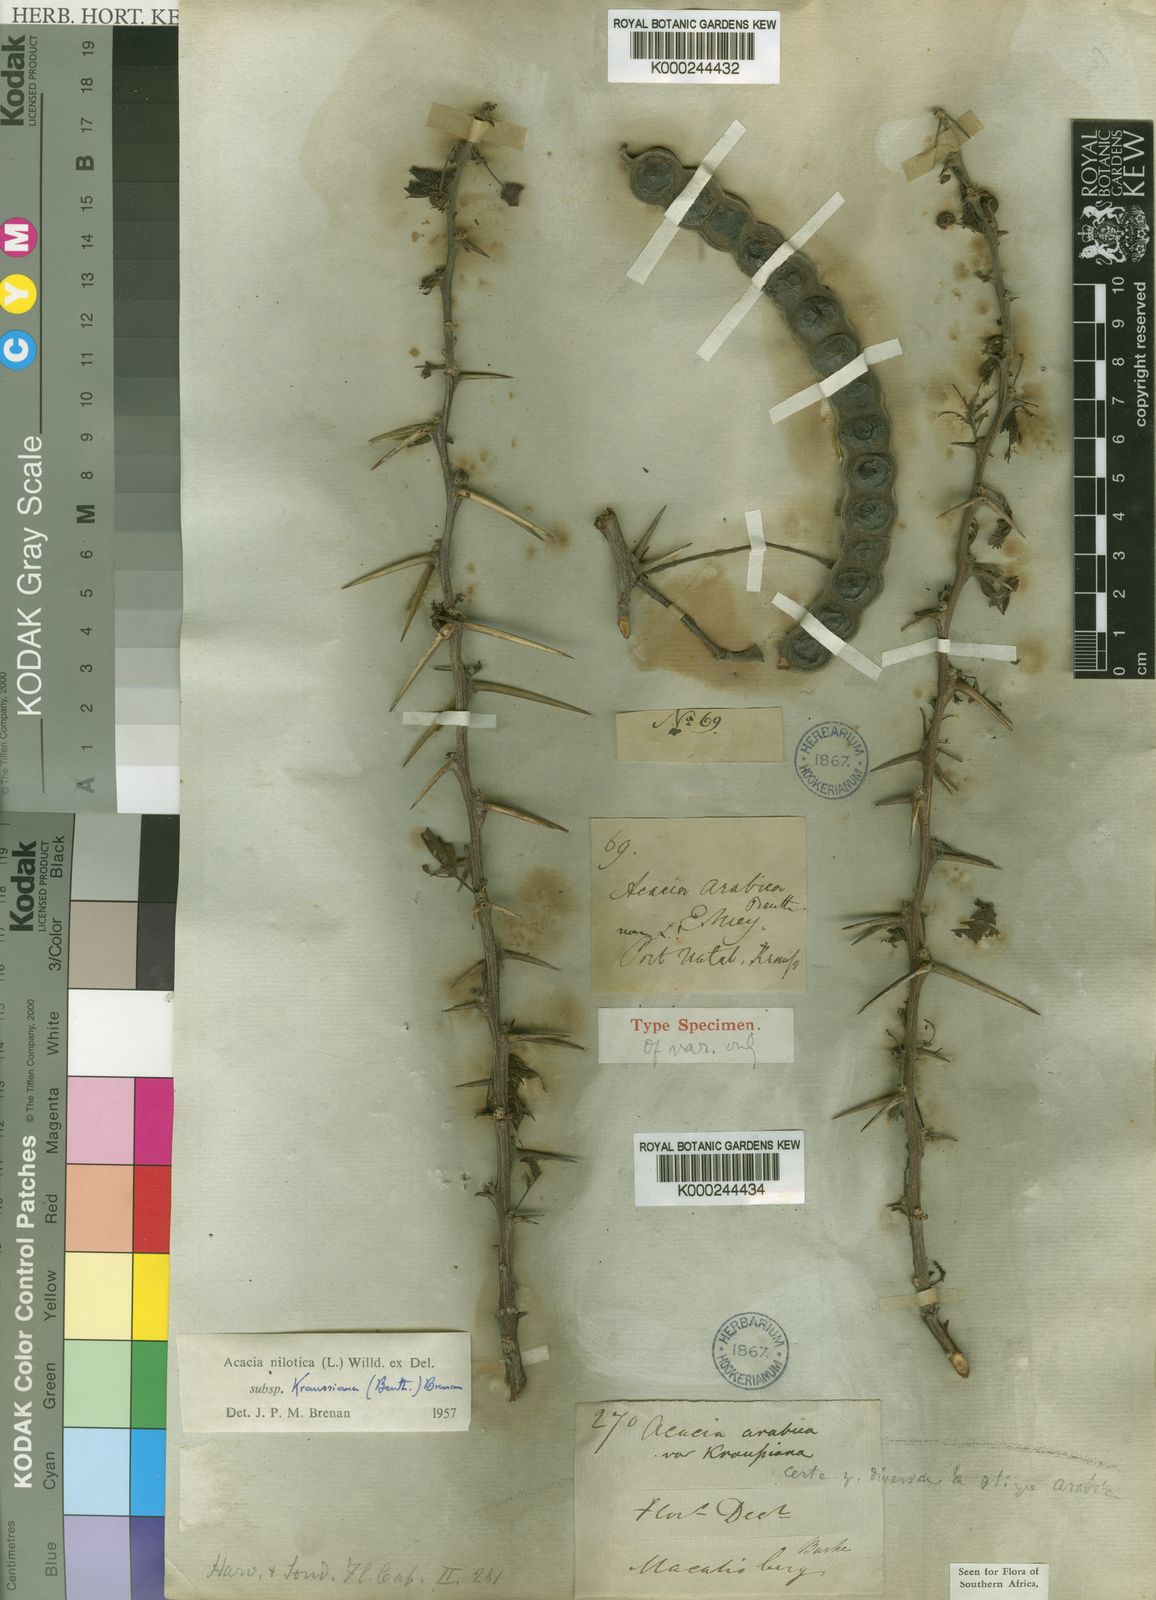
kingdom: Plantae
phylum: Tracheophyta
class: Magnoliopsida
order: Fabales
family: Fabaceae
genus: Vachellia
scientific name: Vachellia nilotica
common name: Arabic gumtree
